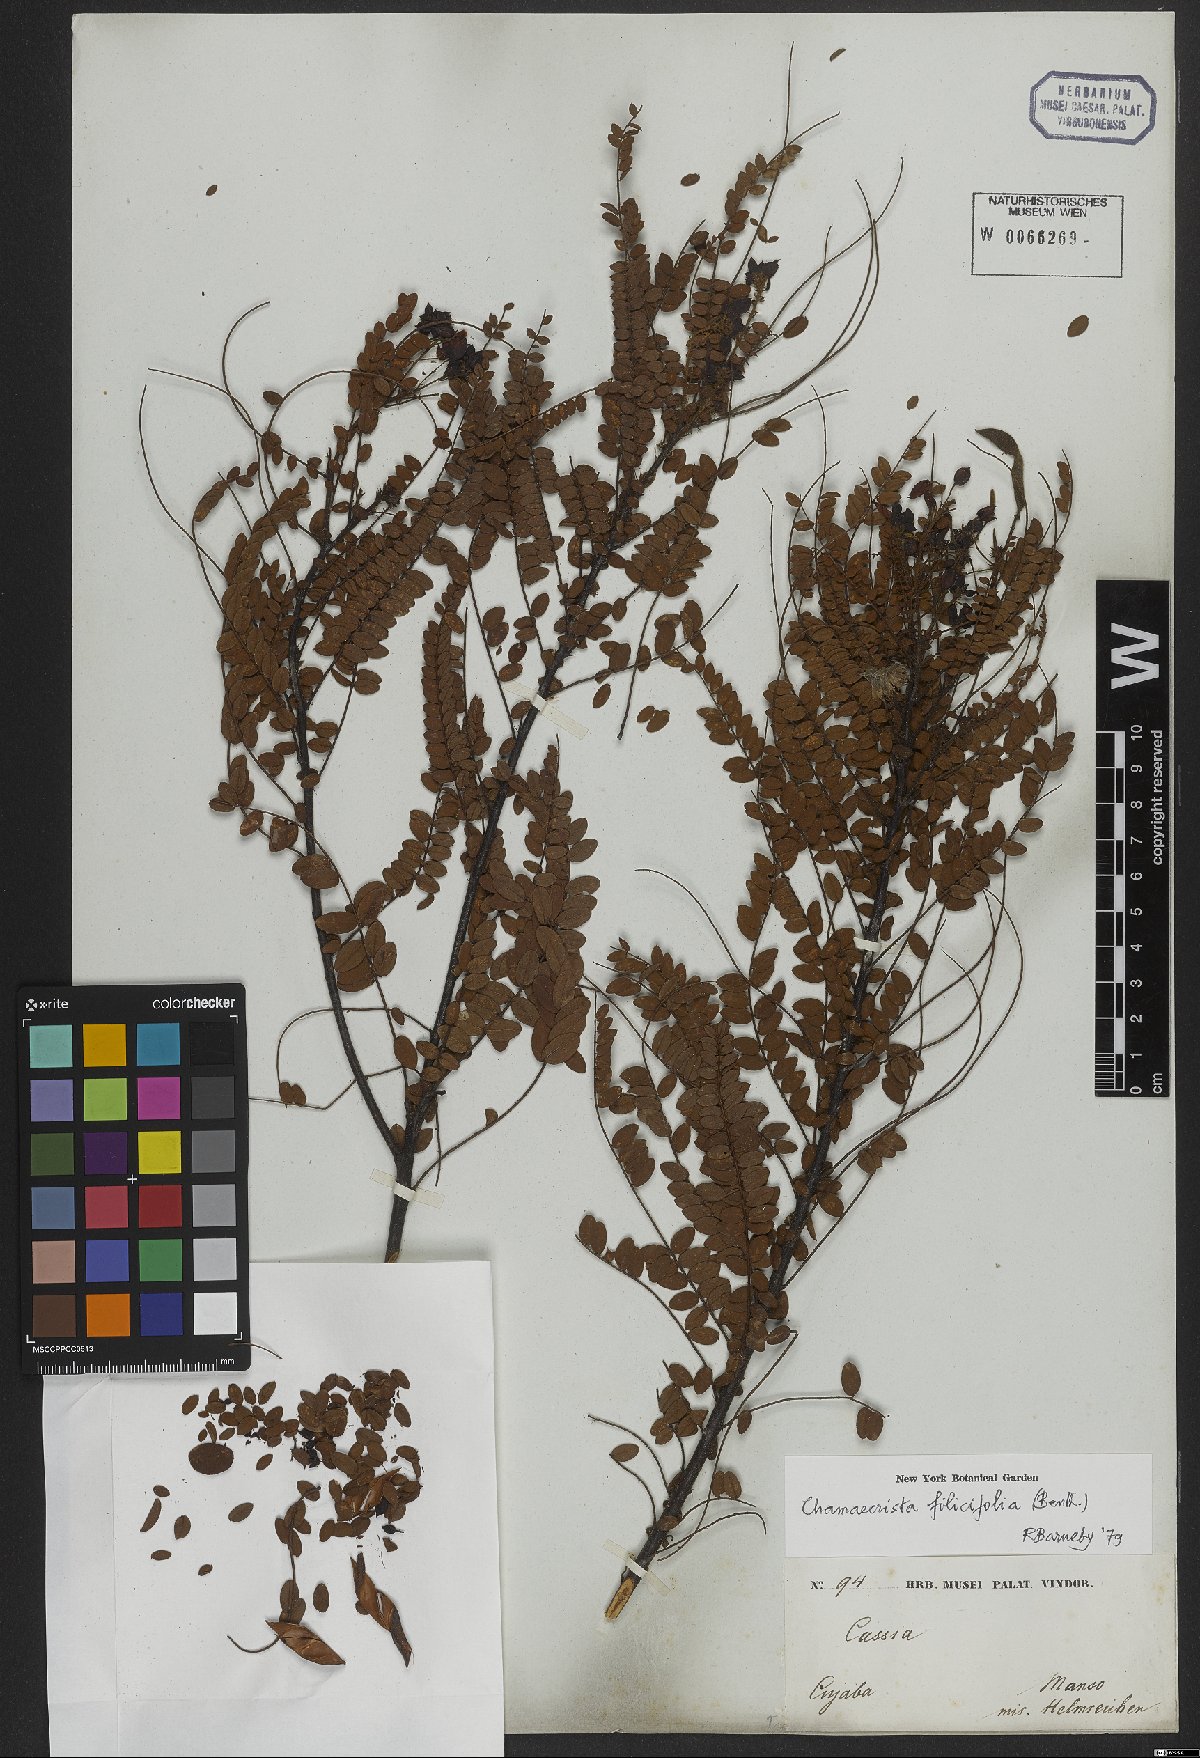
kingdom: Plantae
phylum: Tracheophyta
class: Magnoliopsida
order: Fabales
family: Fabaceae
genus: Chamaecrista
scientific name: Chamaecrista filicifolia
